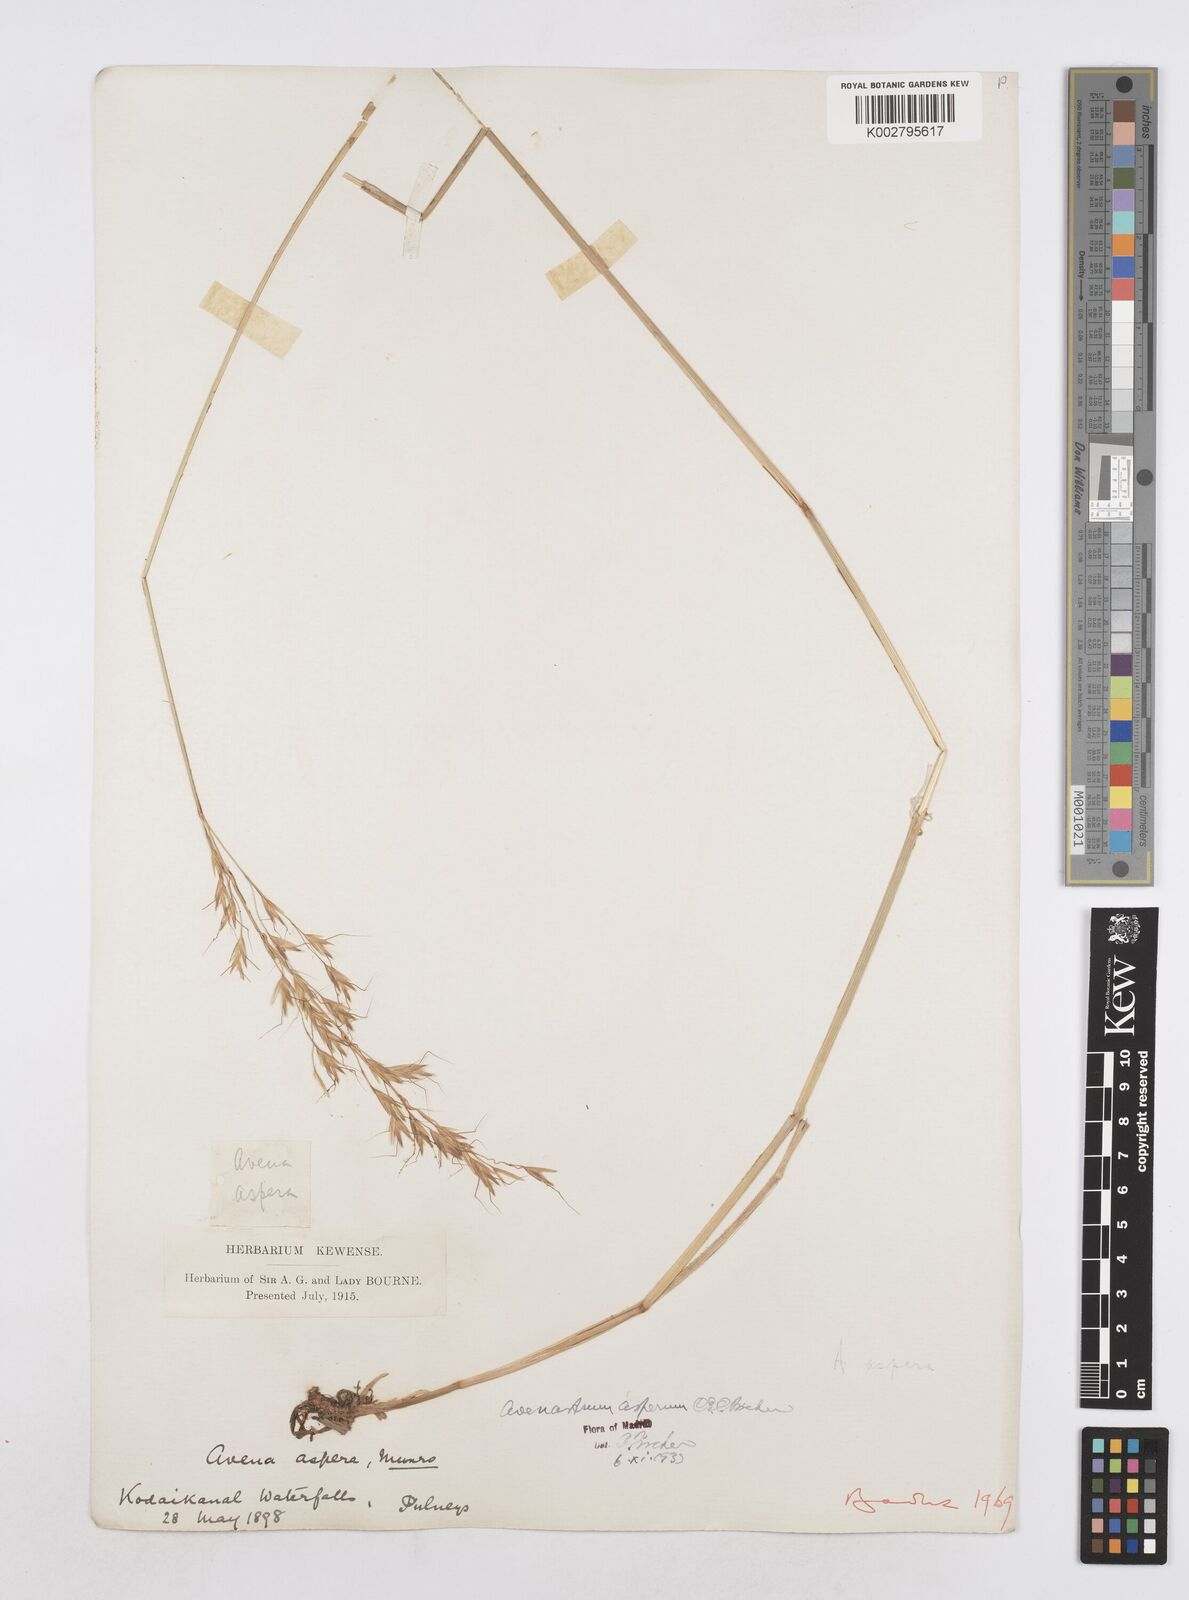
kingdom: Plantae
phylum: Tracheophyta
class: Liliopsida
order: Poales
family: Poaceae
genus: Helictotrichon
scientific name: Helictotrichon
